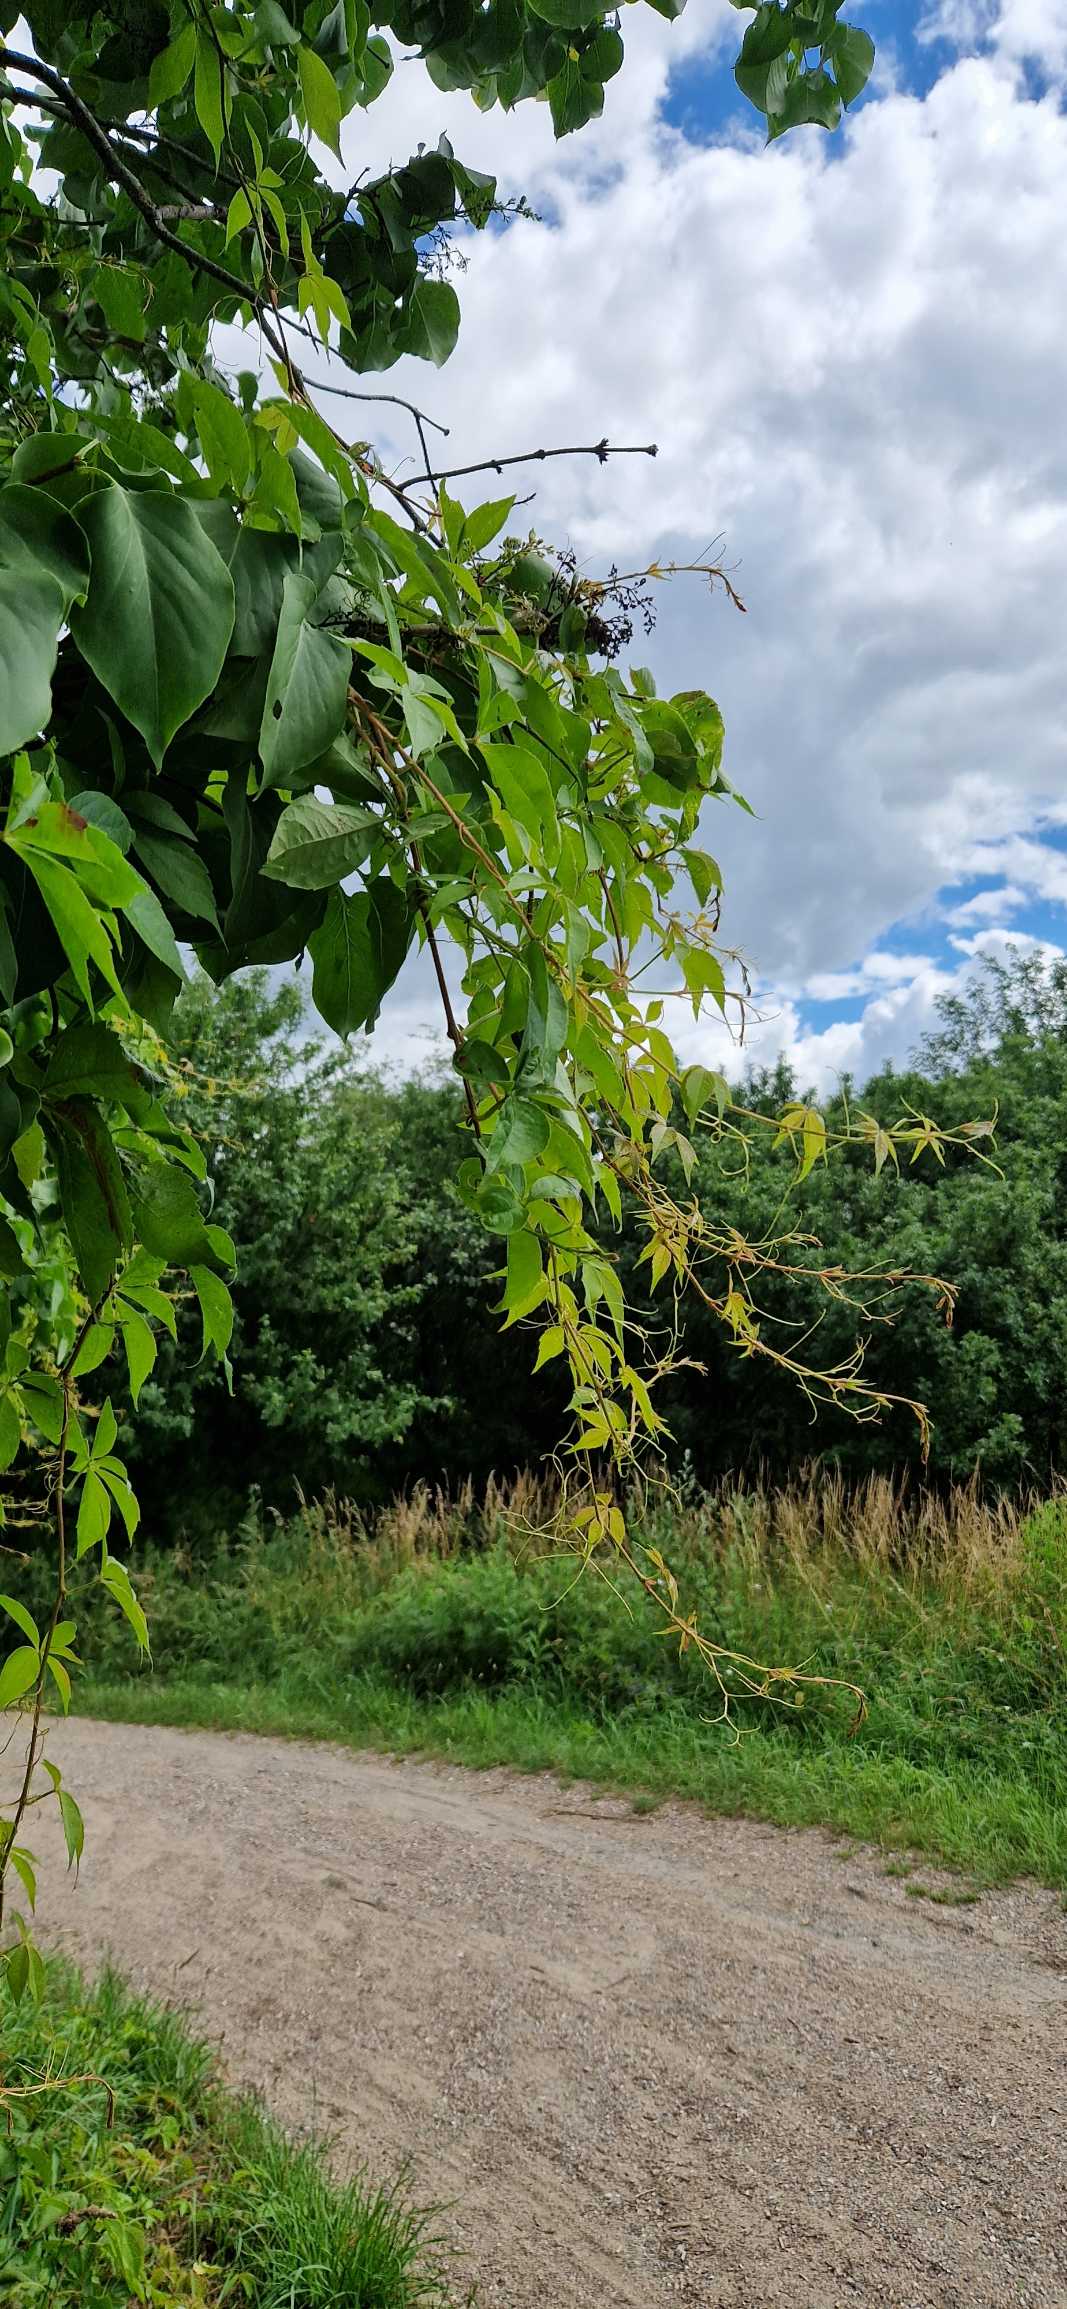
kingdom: Plantae
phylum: Tracheophyta
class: Magnoliopsida
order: Vitales
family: Vitaceae
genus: Parthenocissus
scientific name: Parthenocissus inserta
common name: Vildvin
